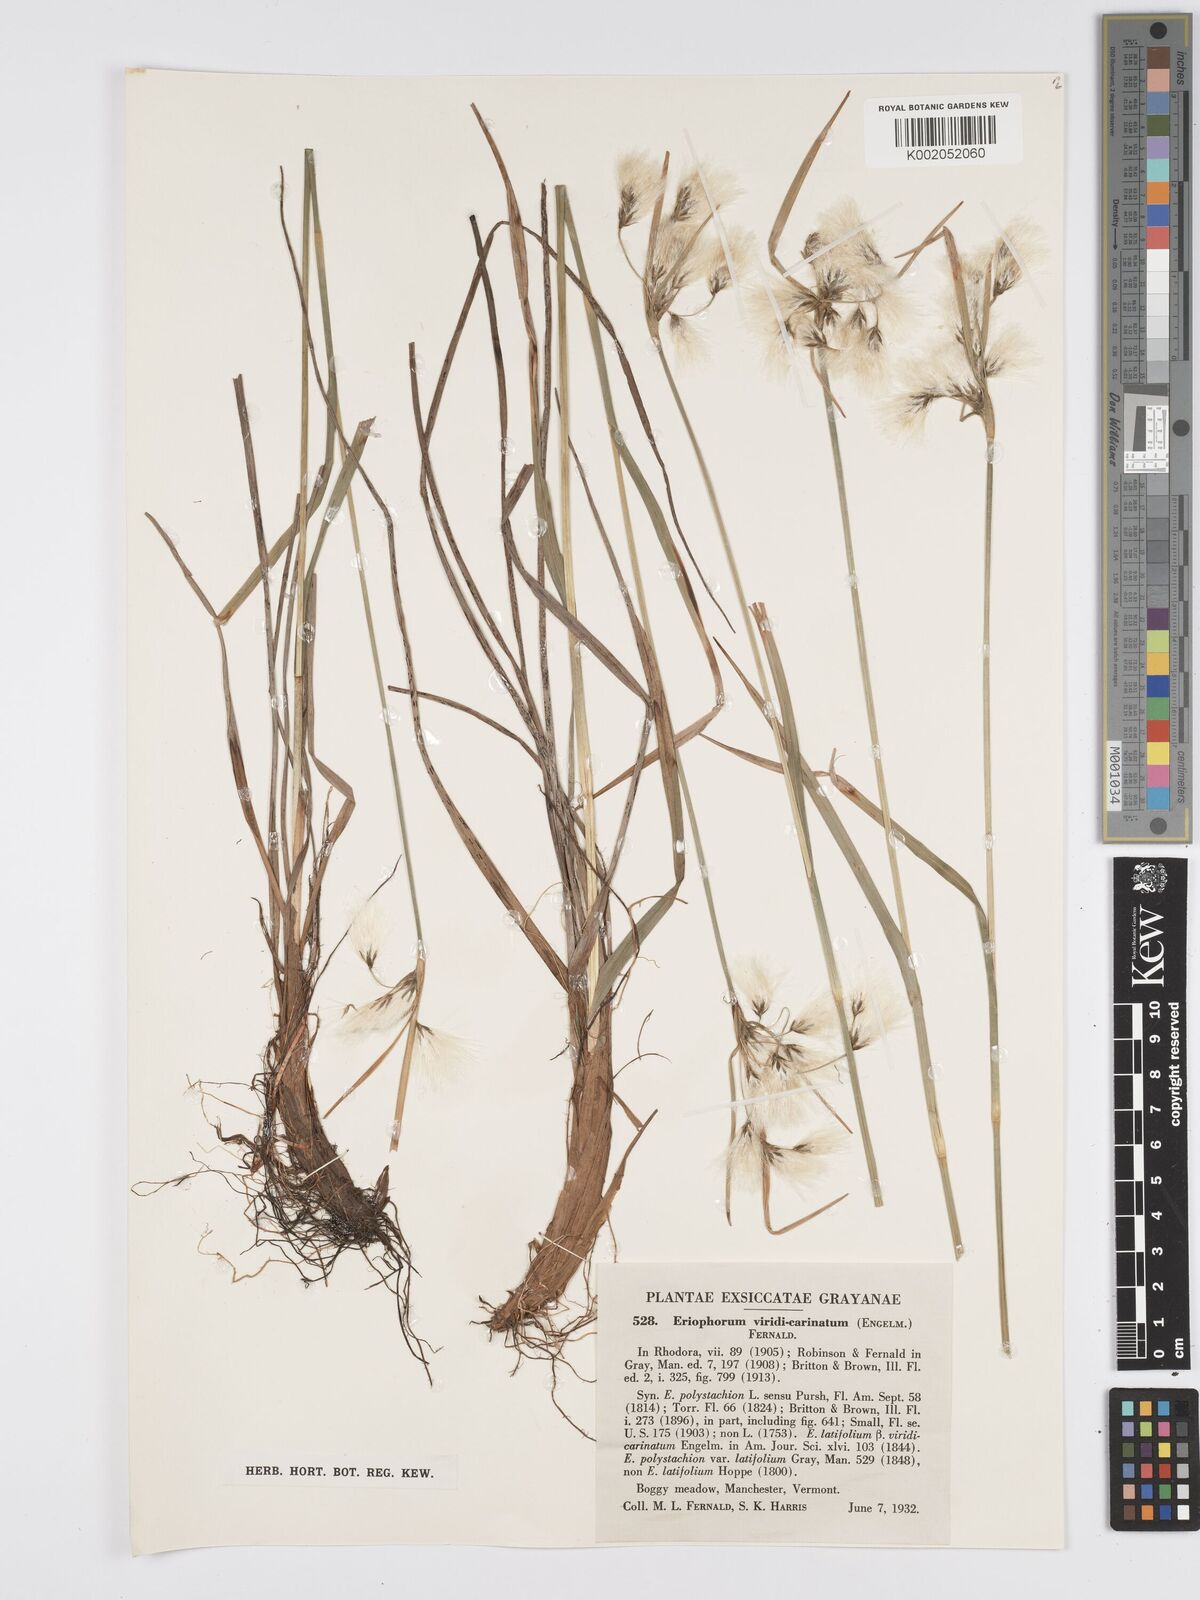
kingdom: Plantae
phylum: Tracheophyta
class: Liliopsida
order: Poales
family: Cyperaceae
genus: Eriophorum
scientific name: Eriophorum viridicarinatum
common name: Green-keeled cottongrass
